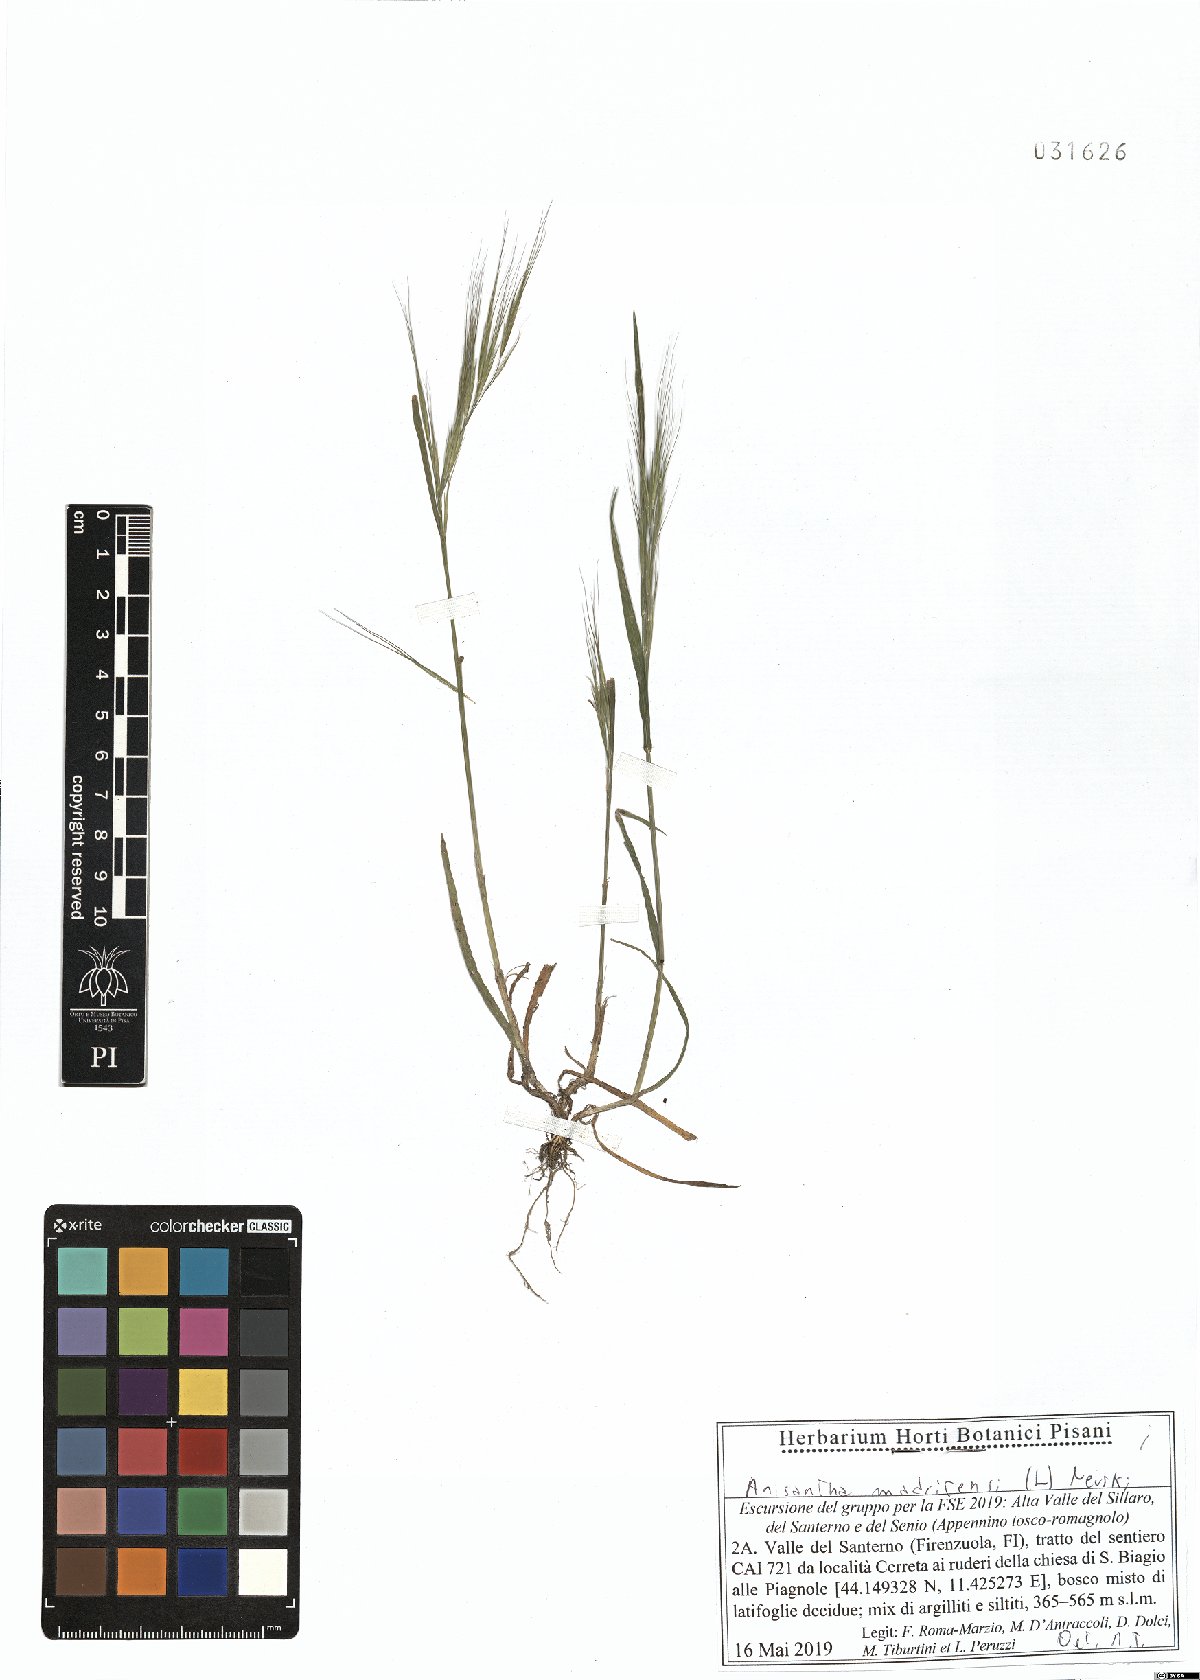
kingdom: Plantae
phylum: Tracheophyta
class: Liliopsida
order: Poales
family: Poaceae
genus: Bromus
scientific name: Bromus madritensis
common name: Compact brome
